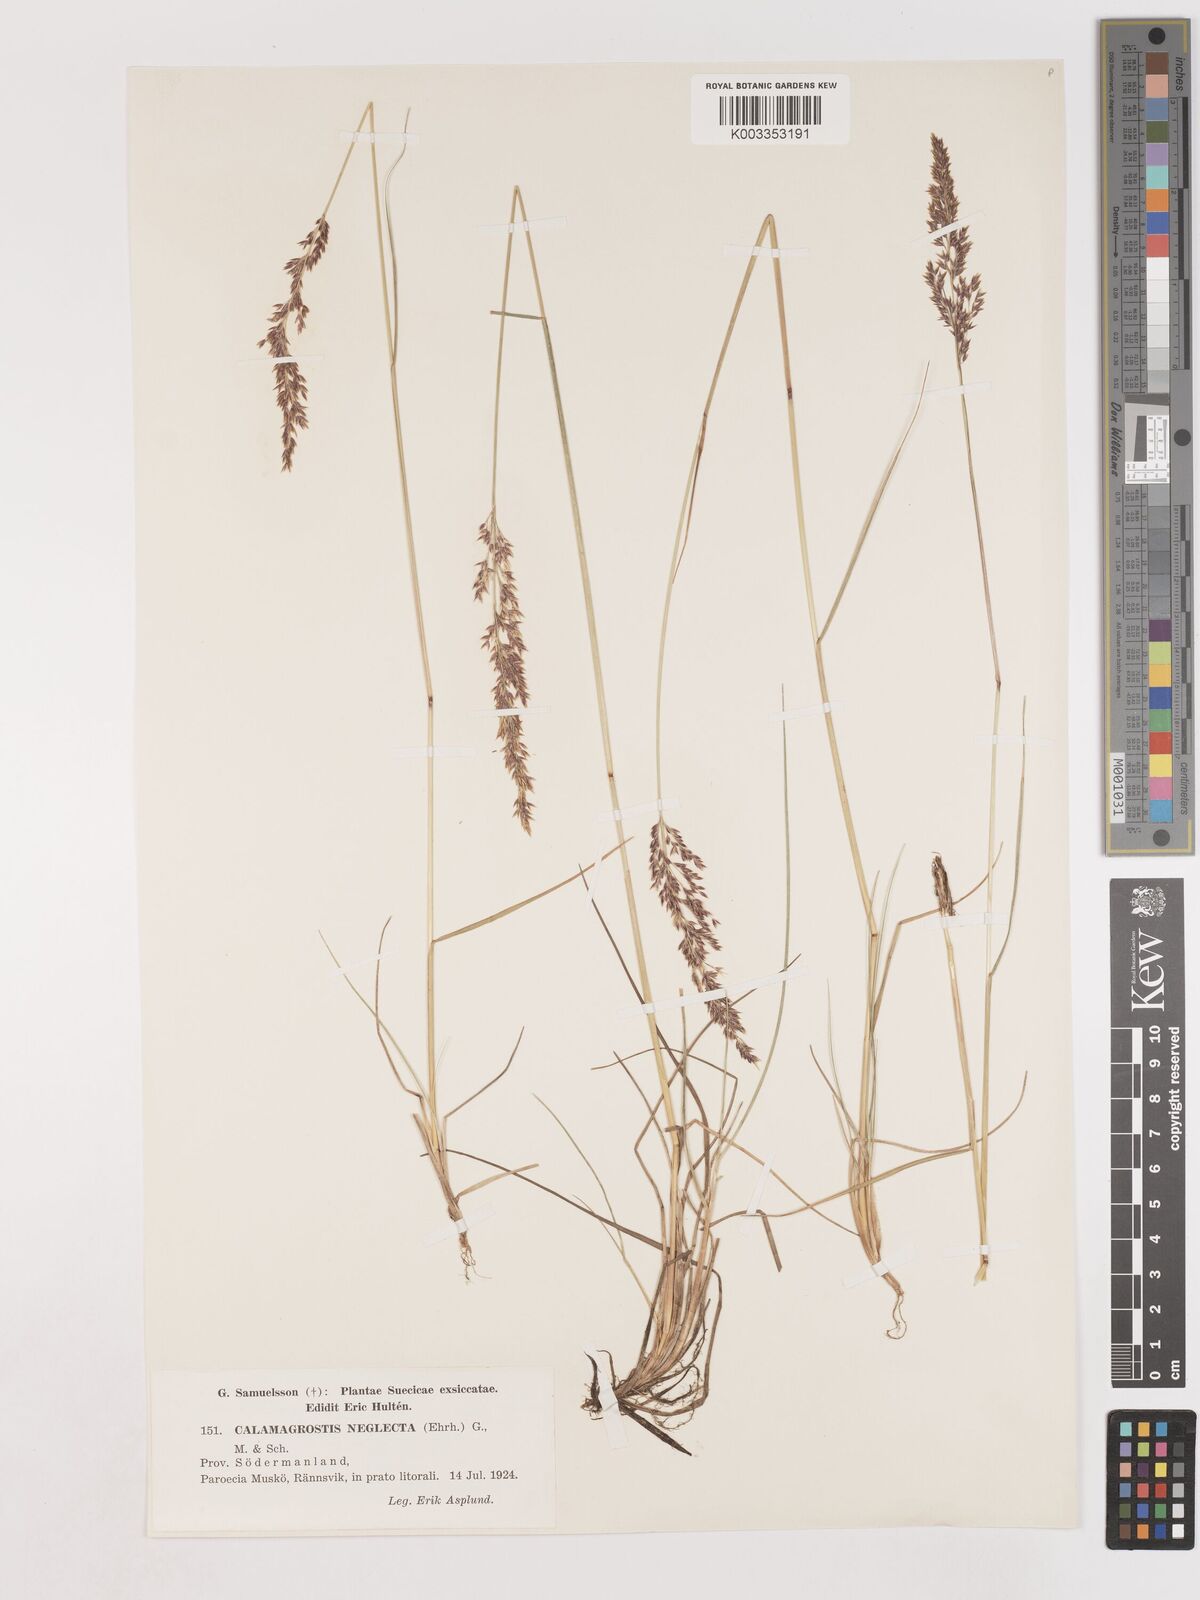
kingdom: Plantae
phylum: Tracheophyta
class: Liliopsida
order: Poales
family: Poaceae
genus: Cinnagrostis
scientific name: Cinnagrostis recta
